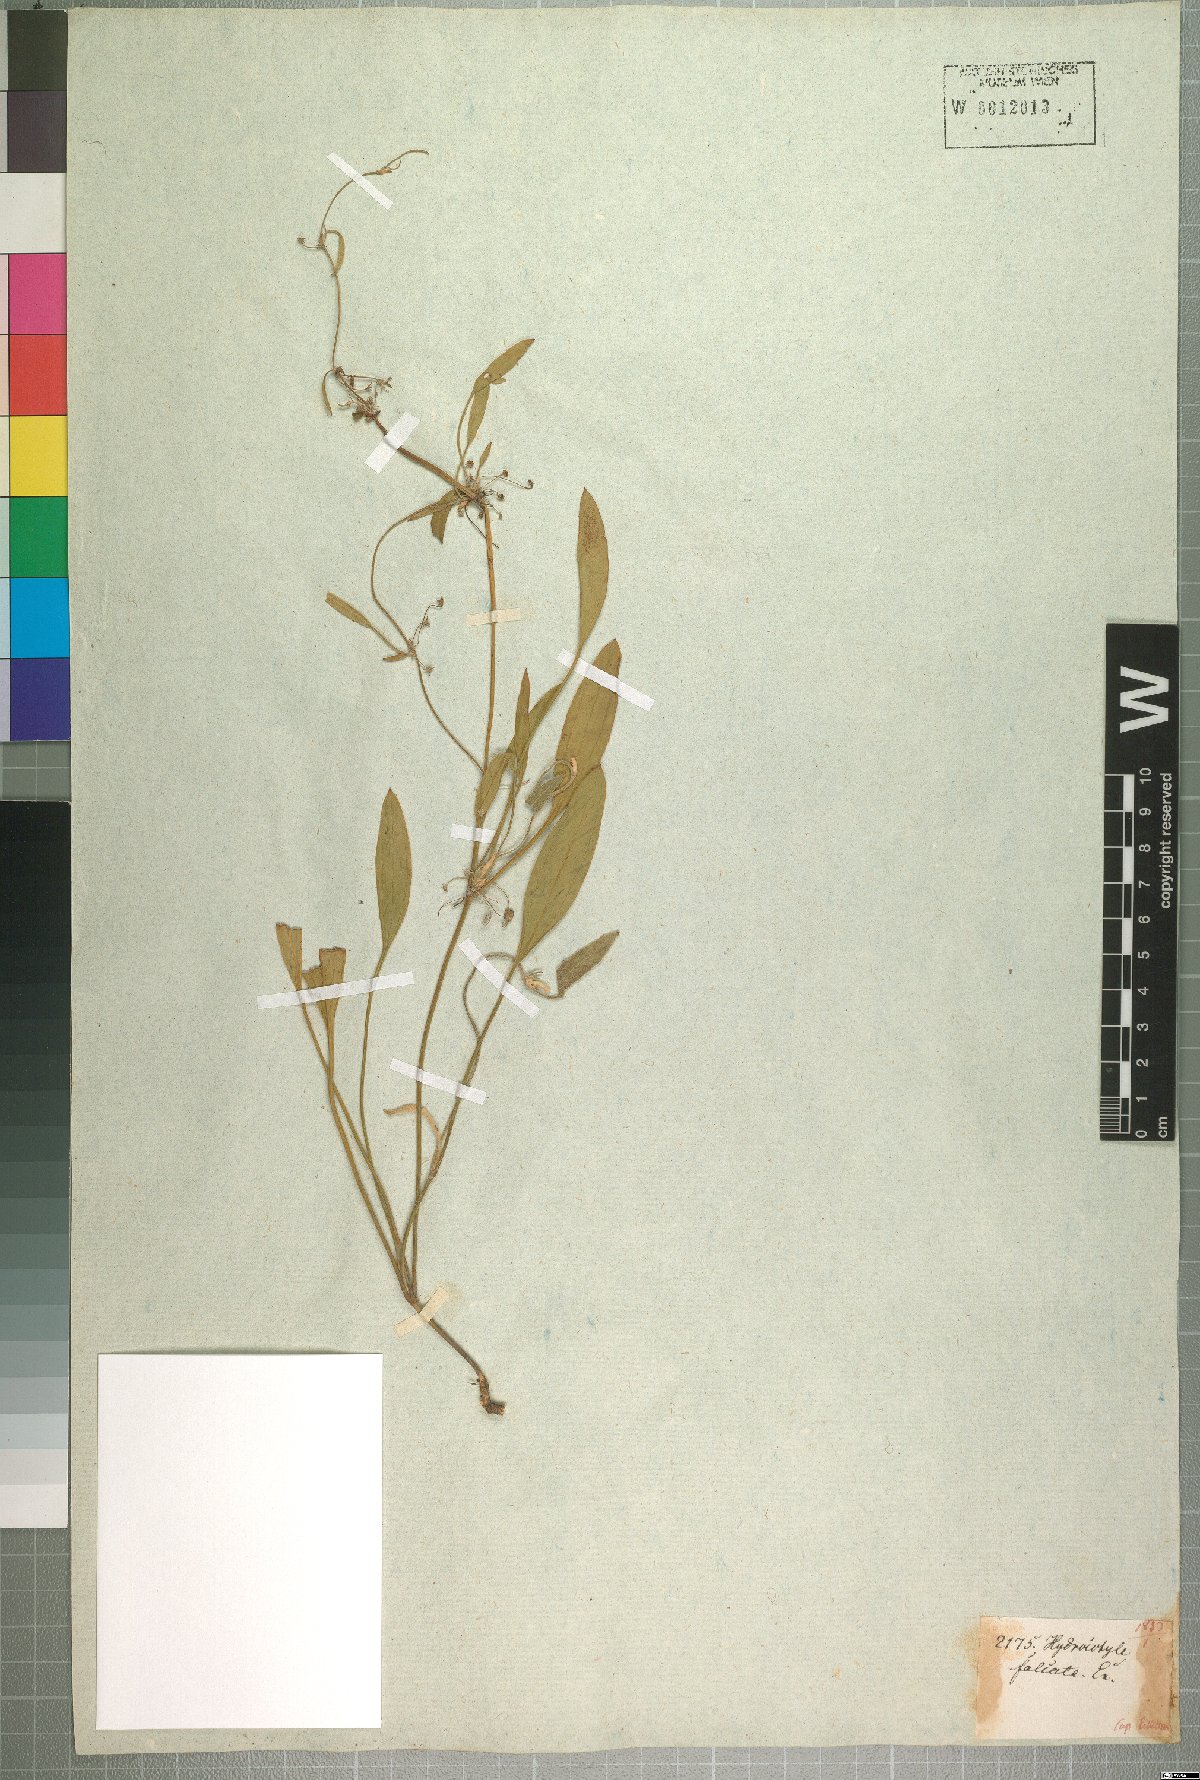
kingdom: Plantae
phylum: Tracheophyta
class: Magnoliopsida
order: Apiales
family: Apiaceae
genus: Centella
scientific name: Centella glabrata
